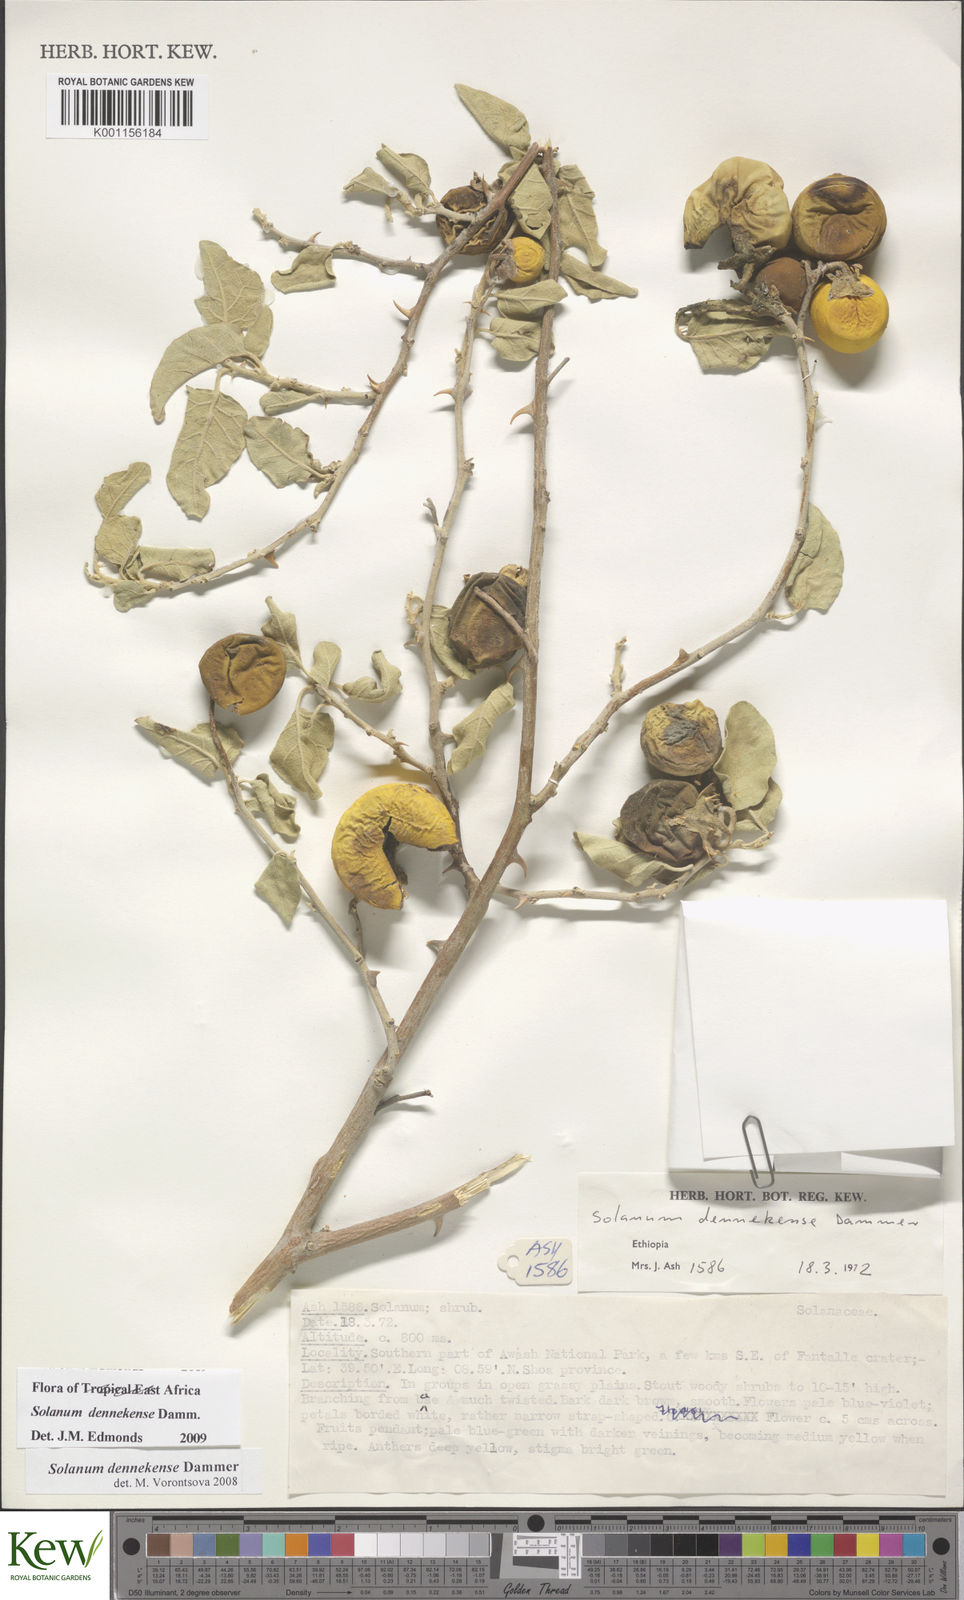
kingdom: Plantae
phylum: Tracheophyta
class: Magnoliopsida
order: Solanales
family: Solanaceae
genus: Solanum
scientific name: Solanum dennekense
